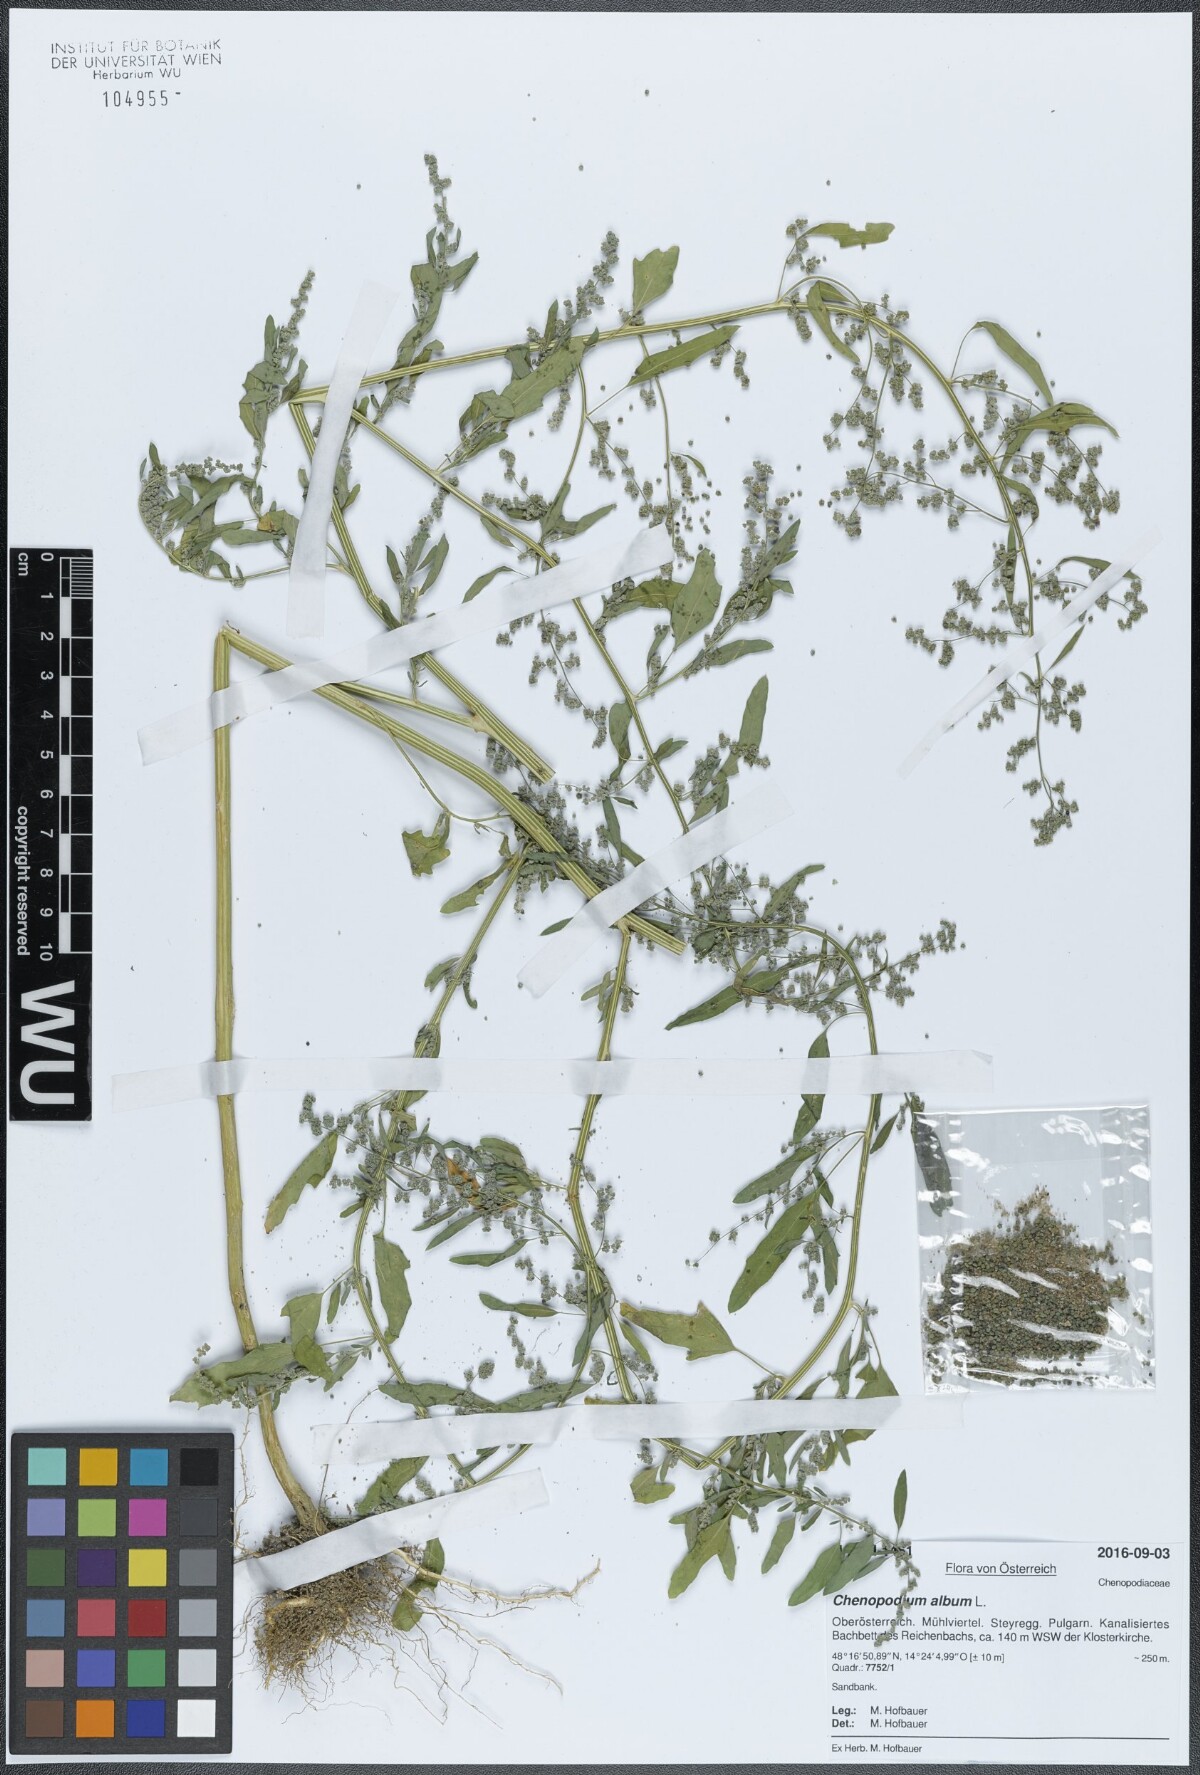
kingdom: Plantae
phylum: Tracheophyta
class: Magnoliopsida
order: Caryophyllales
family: Amaranthaceae
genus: Chenopodium
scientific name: Chenopodium album
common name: Fat-hen
